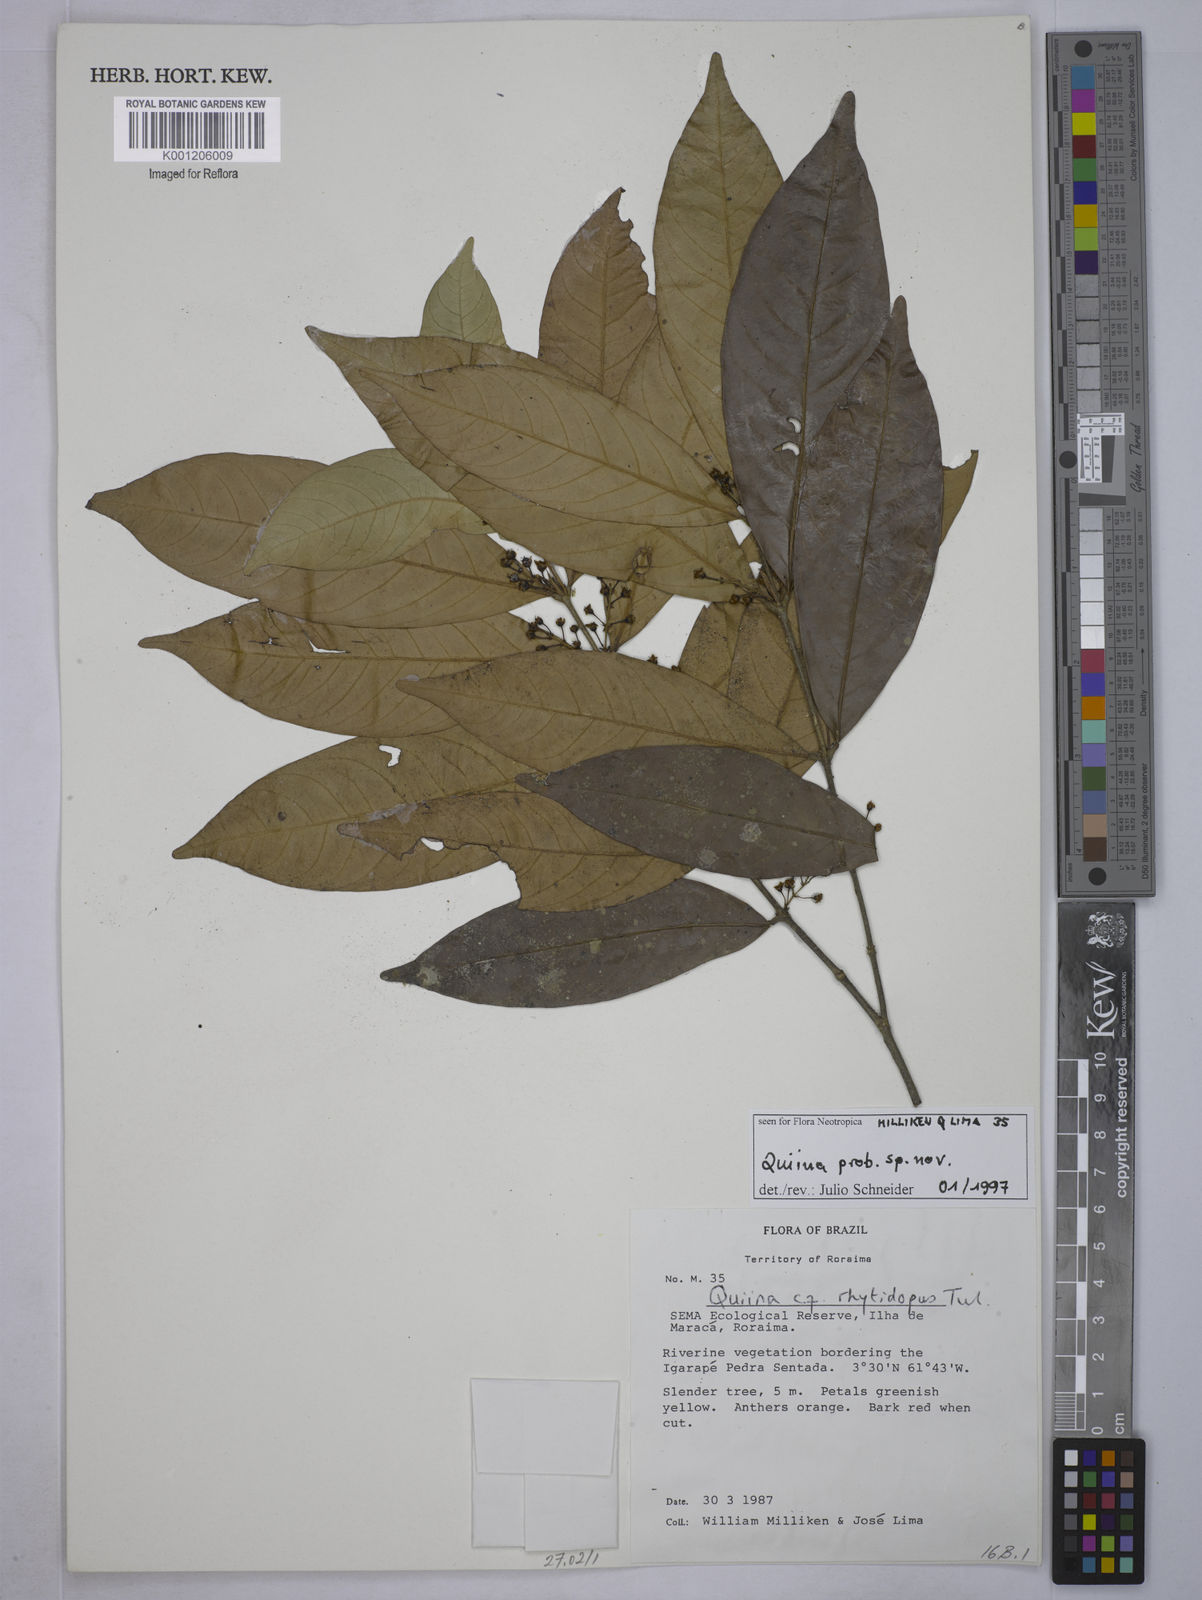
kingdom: Plantae
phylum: Tracheophyta
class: Magnoliopsida
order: Malpighiales
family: Quiinaceae
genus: Quiina
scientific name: Quiina
